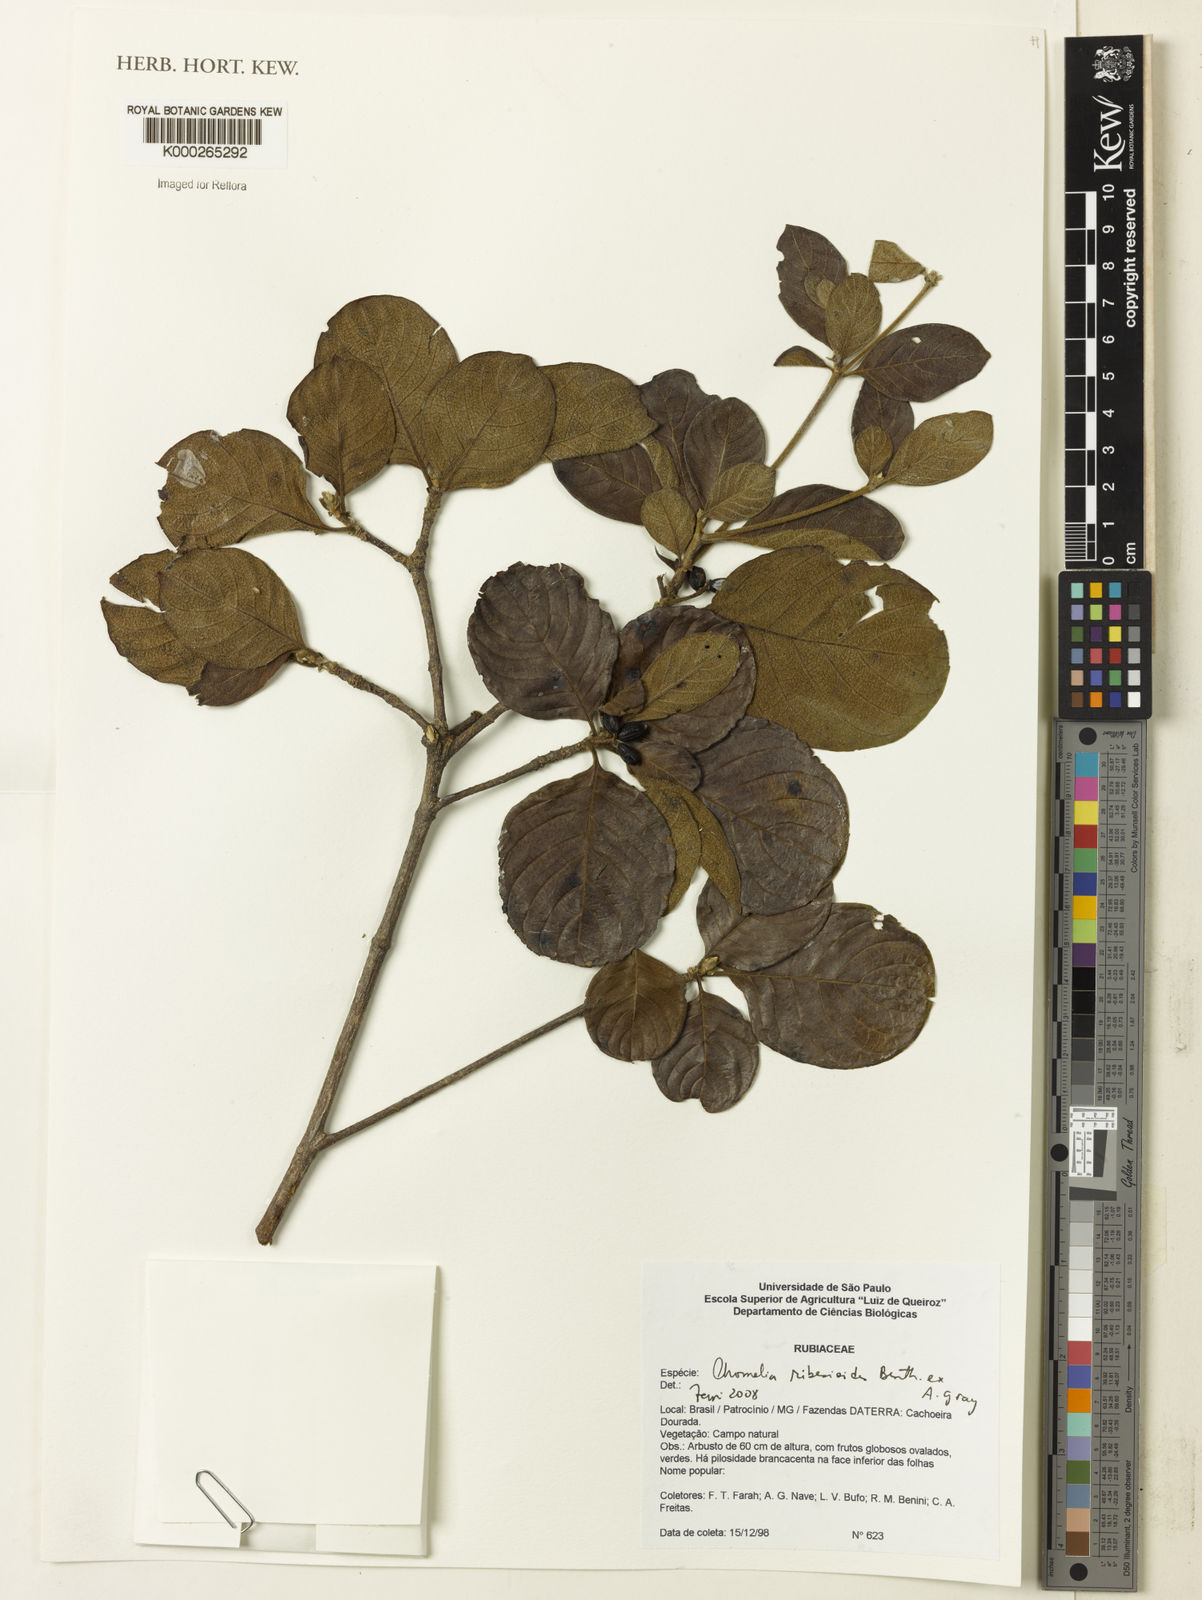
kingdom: Plantae
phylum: Tracheophyta
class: Magnoliopsida
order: Gentianales
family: Rubiaceae
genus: Chomelia
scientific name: Chomelia ribesioides
